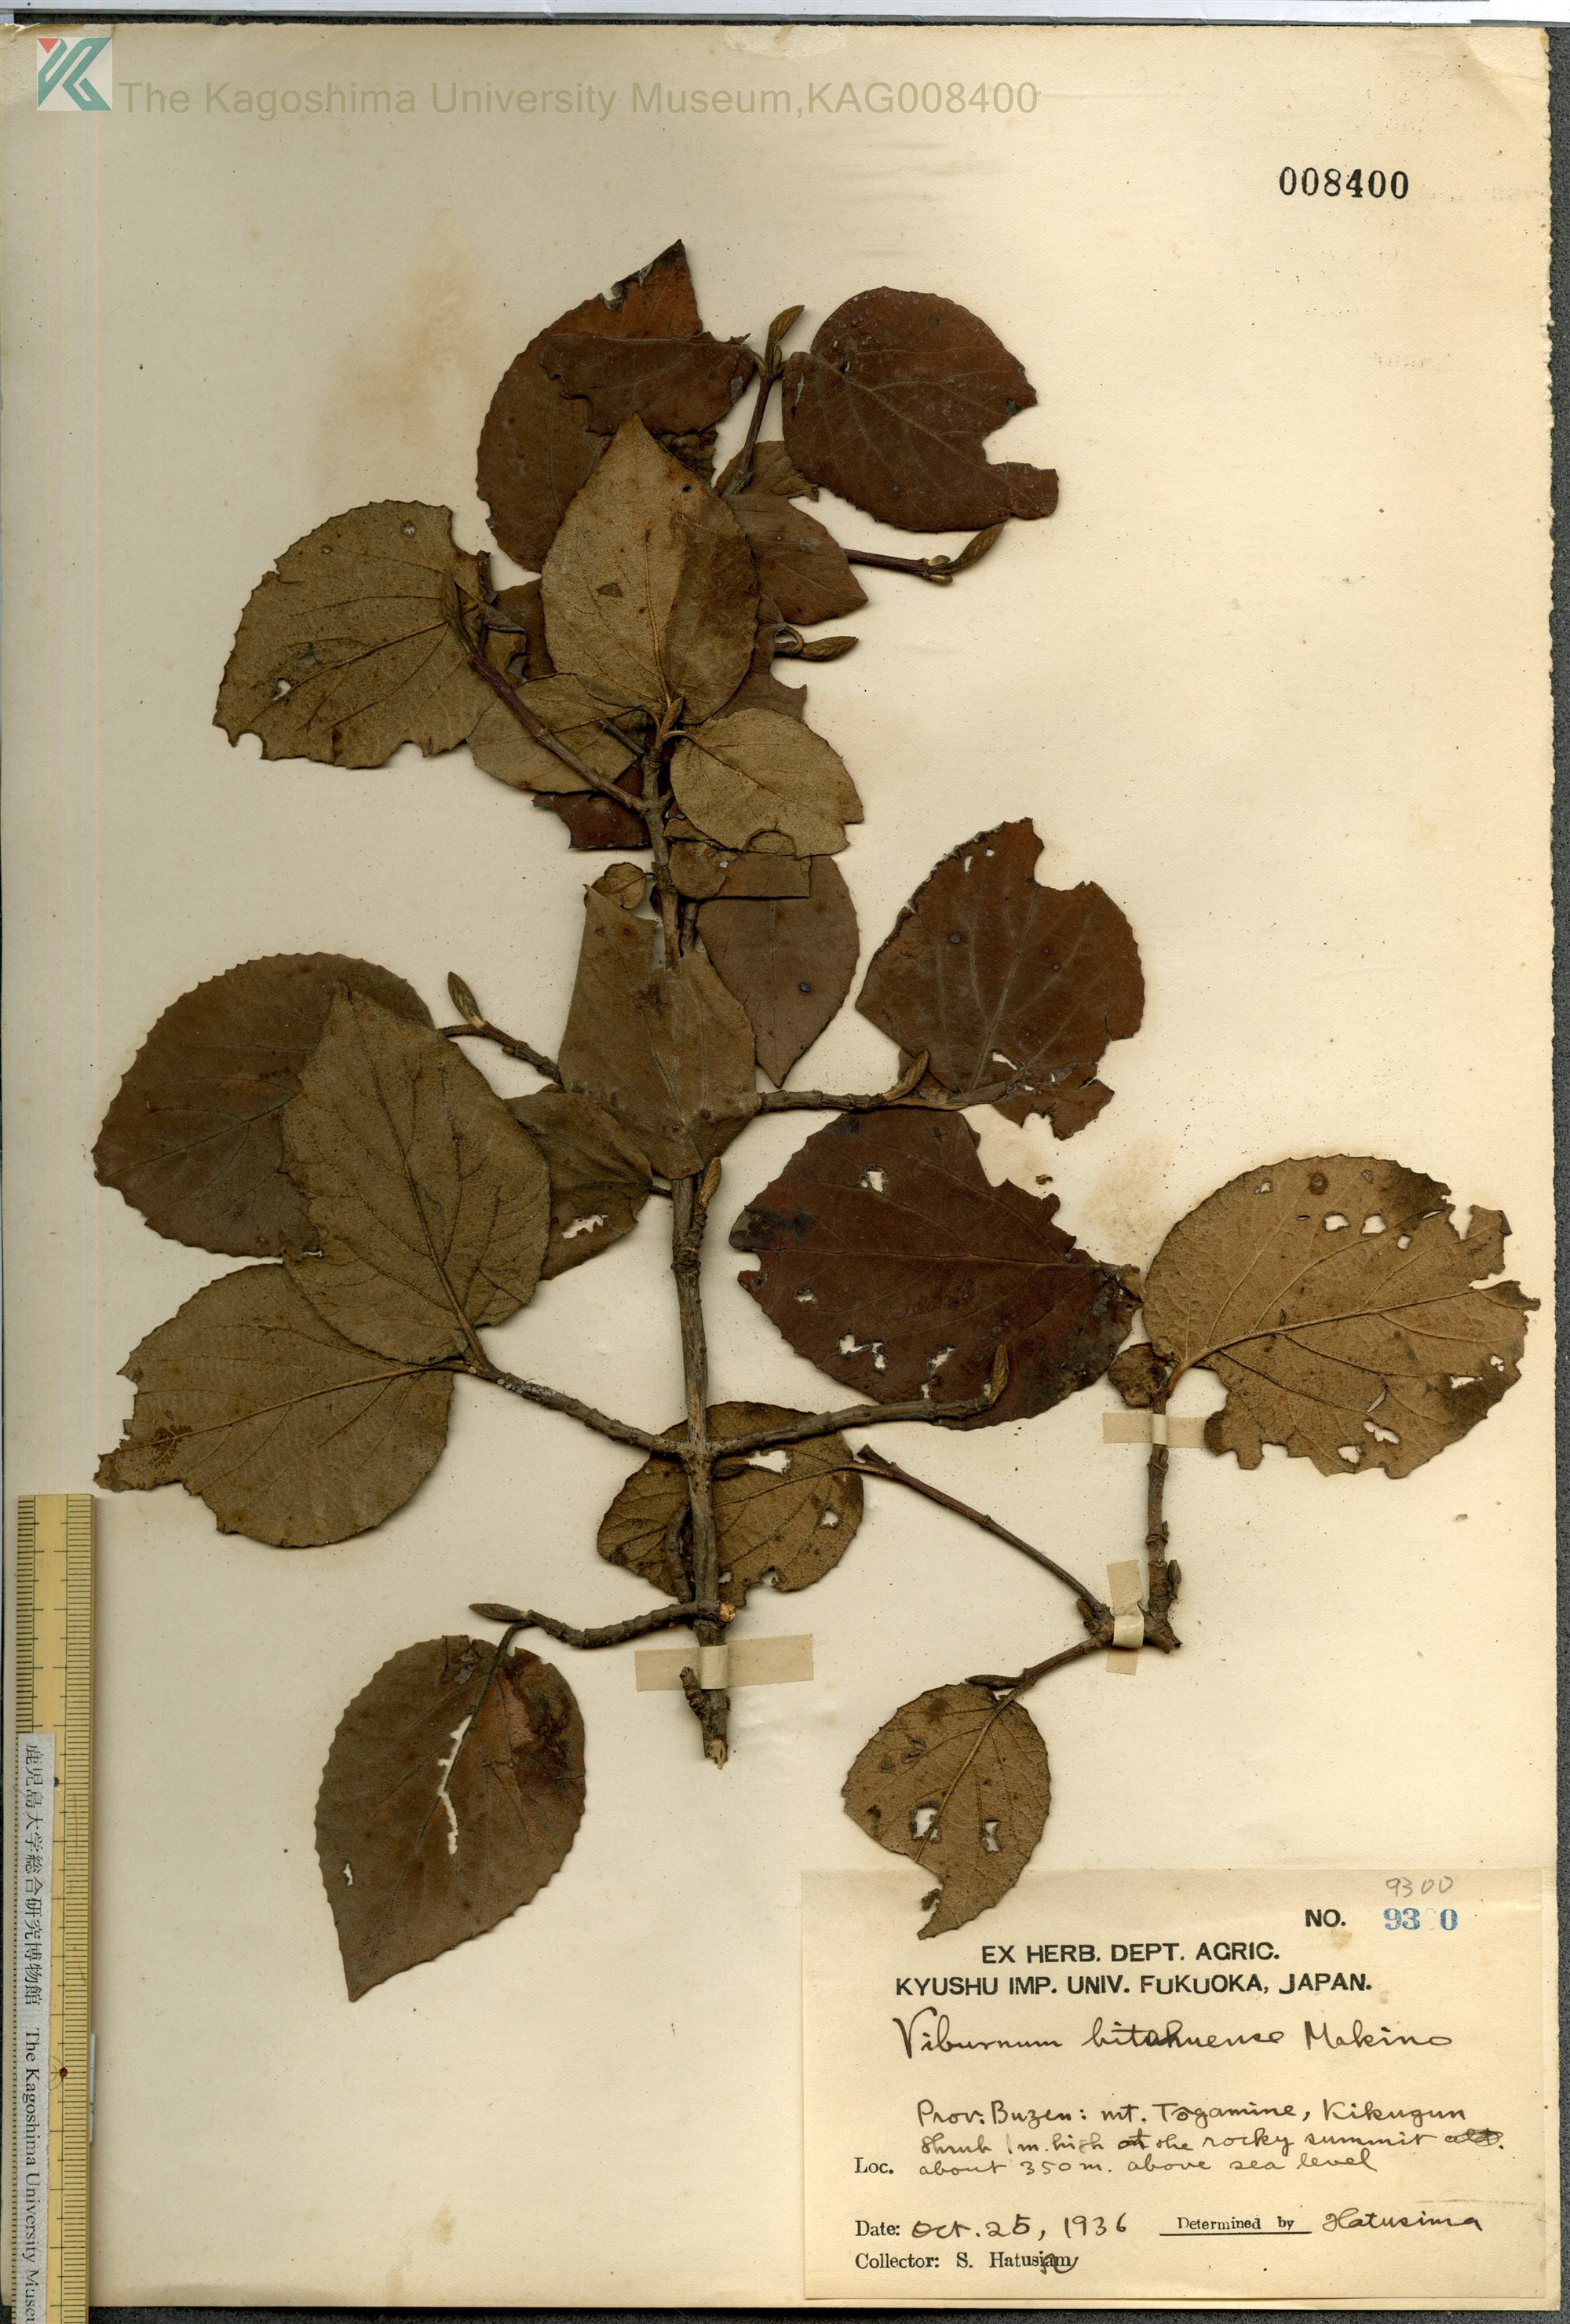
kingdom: Plantae
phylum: Tracheophyta
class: Magnoliopsida
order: Dipsacales
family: Viburnaceae
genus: Viburnum
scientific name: Viburnum carlesii
